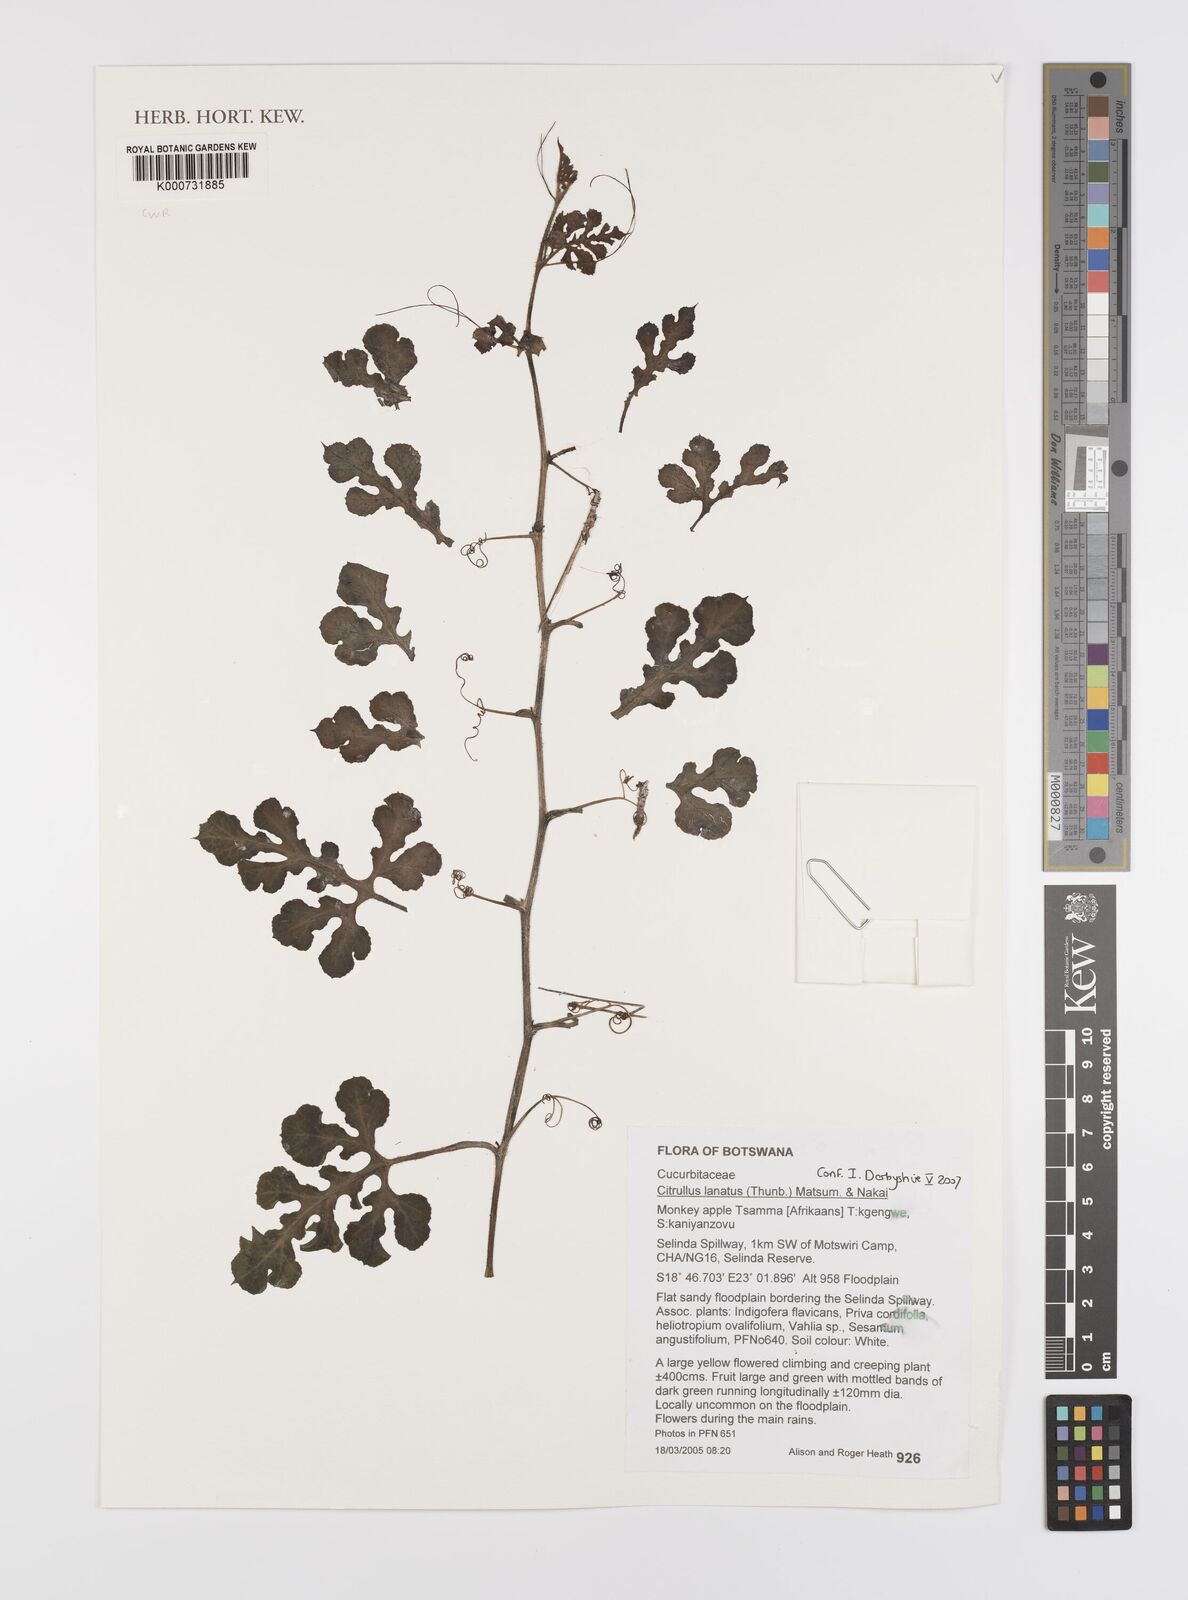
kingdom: Plantae
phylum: Tracheophyta
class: Magnoliopsida
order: Cucurbitales
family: Cucurbitaceae
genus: Citrullus
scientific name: Citrullus lanatus
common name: Watermelon
